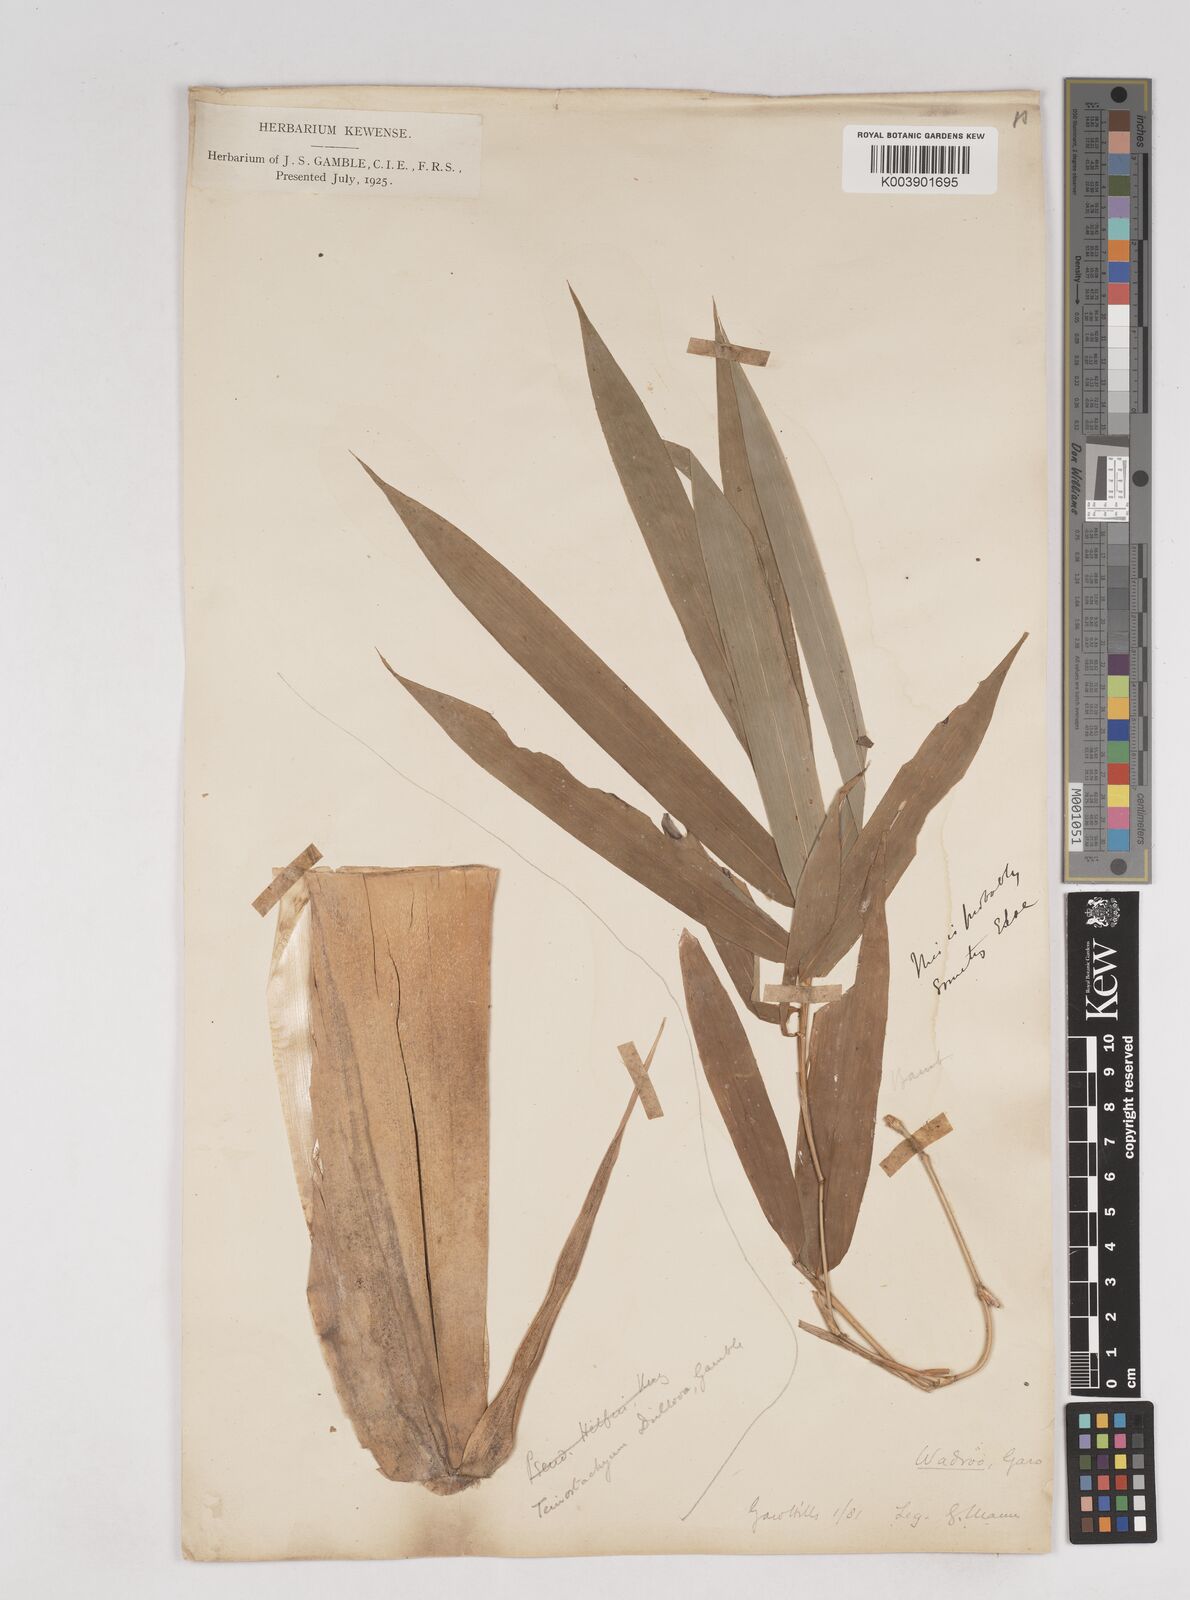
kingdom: Plantae
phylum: Tracheophyta
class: Liliopsida
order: Poales
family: Poaceae
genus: Schizostachyum
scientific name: Schizostachyum dullooa
